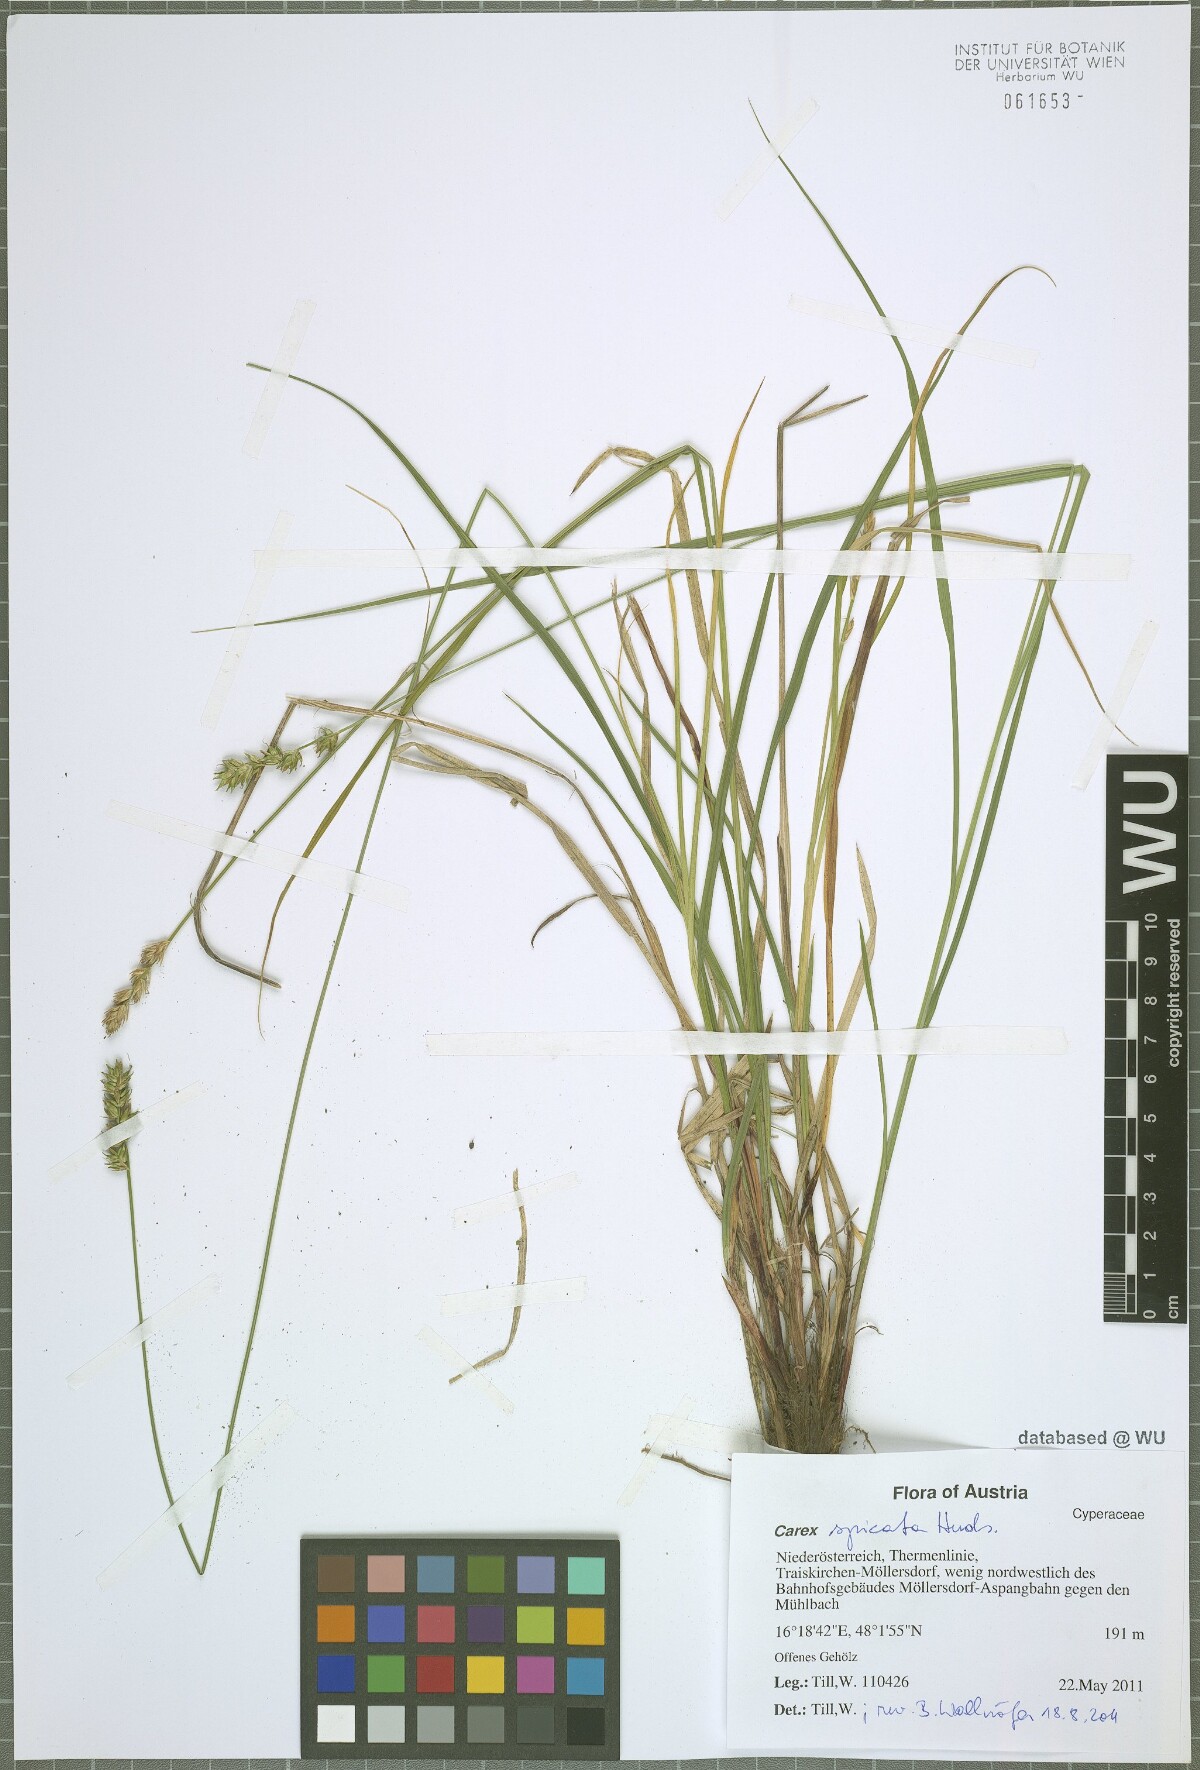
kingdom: Plantae
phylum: Tracheophyta
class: Liliopsida
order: Poales
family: Cyperaceae
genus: Carex
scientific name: Carex spicata
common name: Spiked sedge
